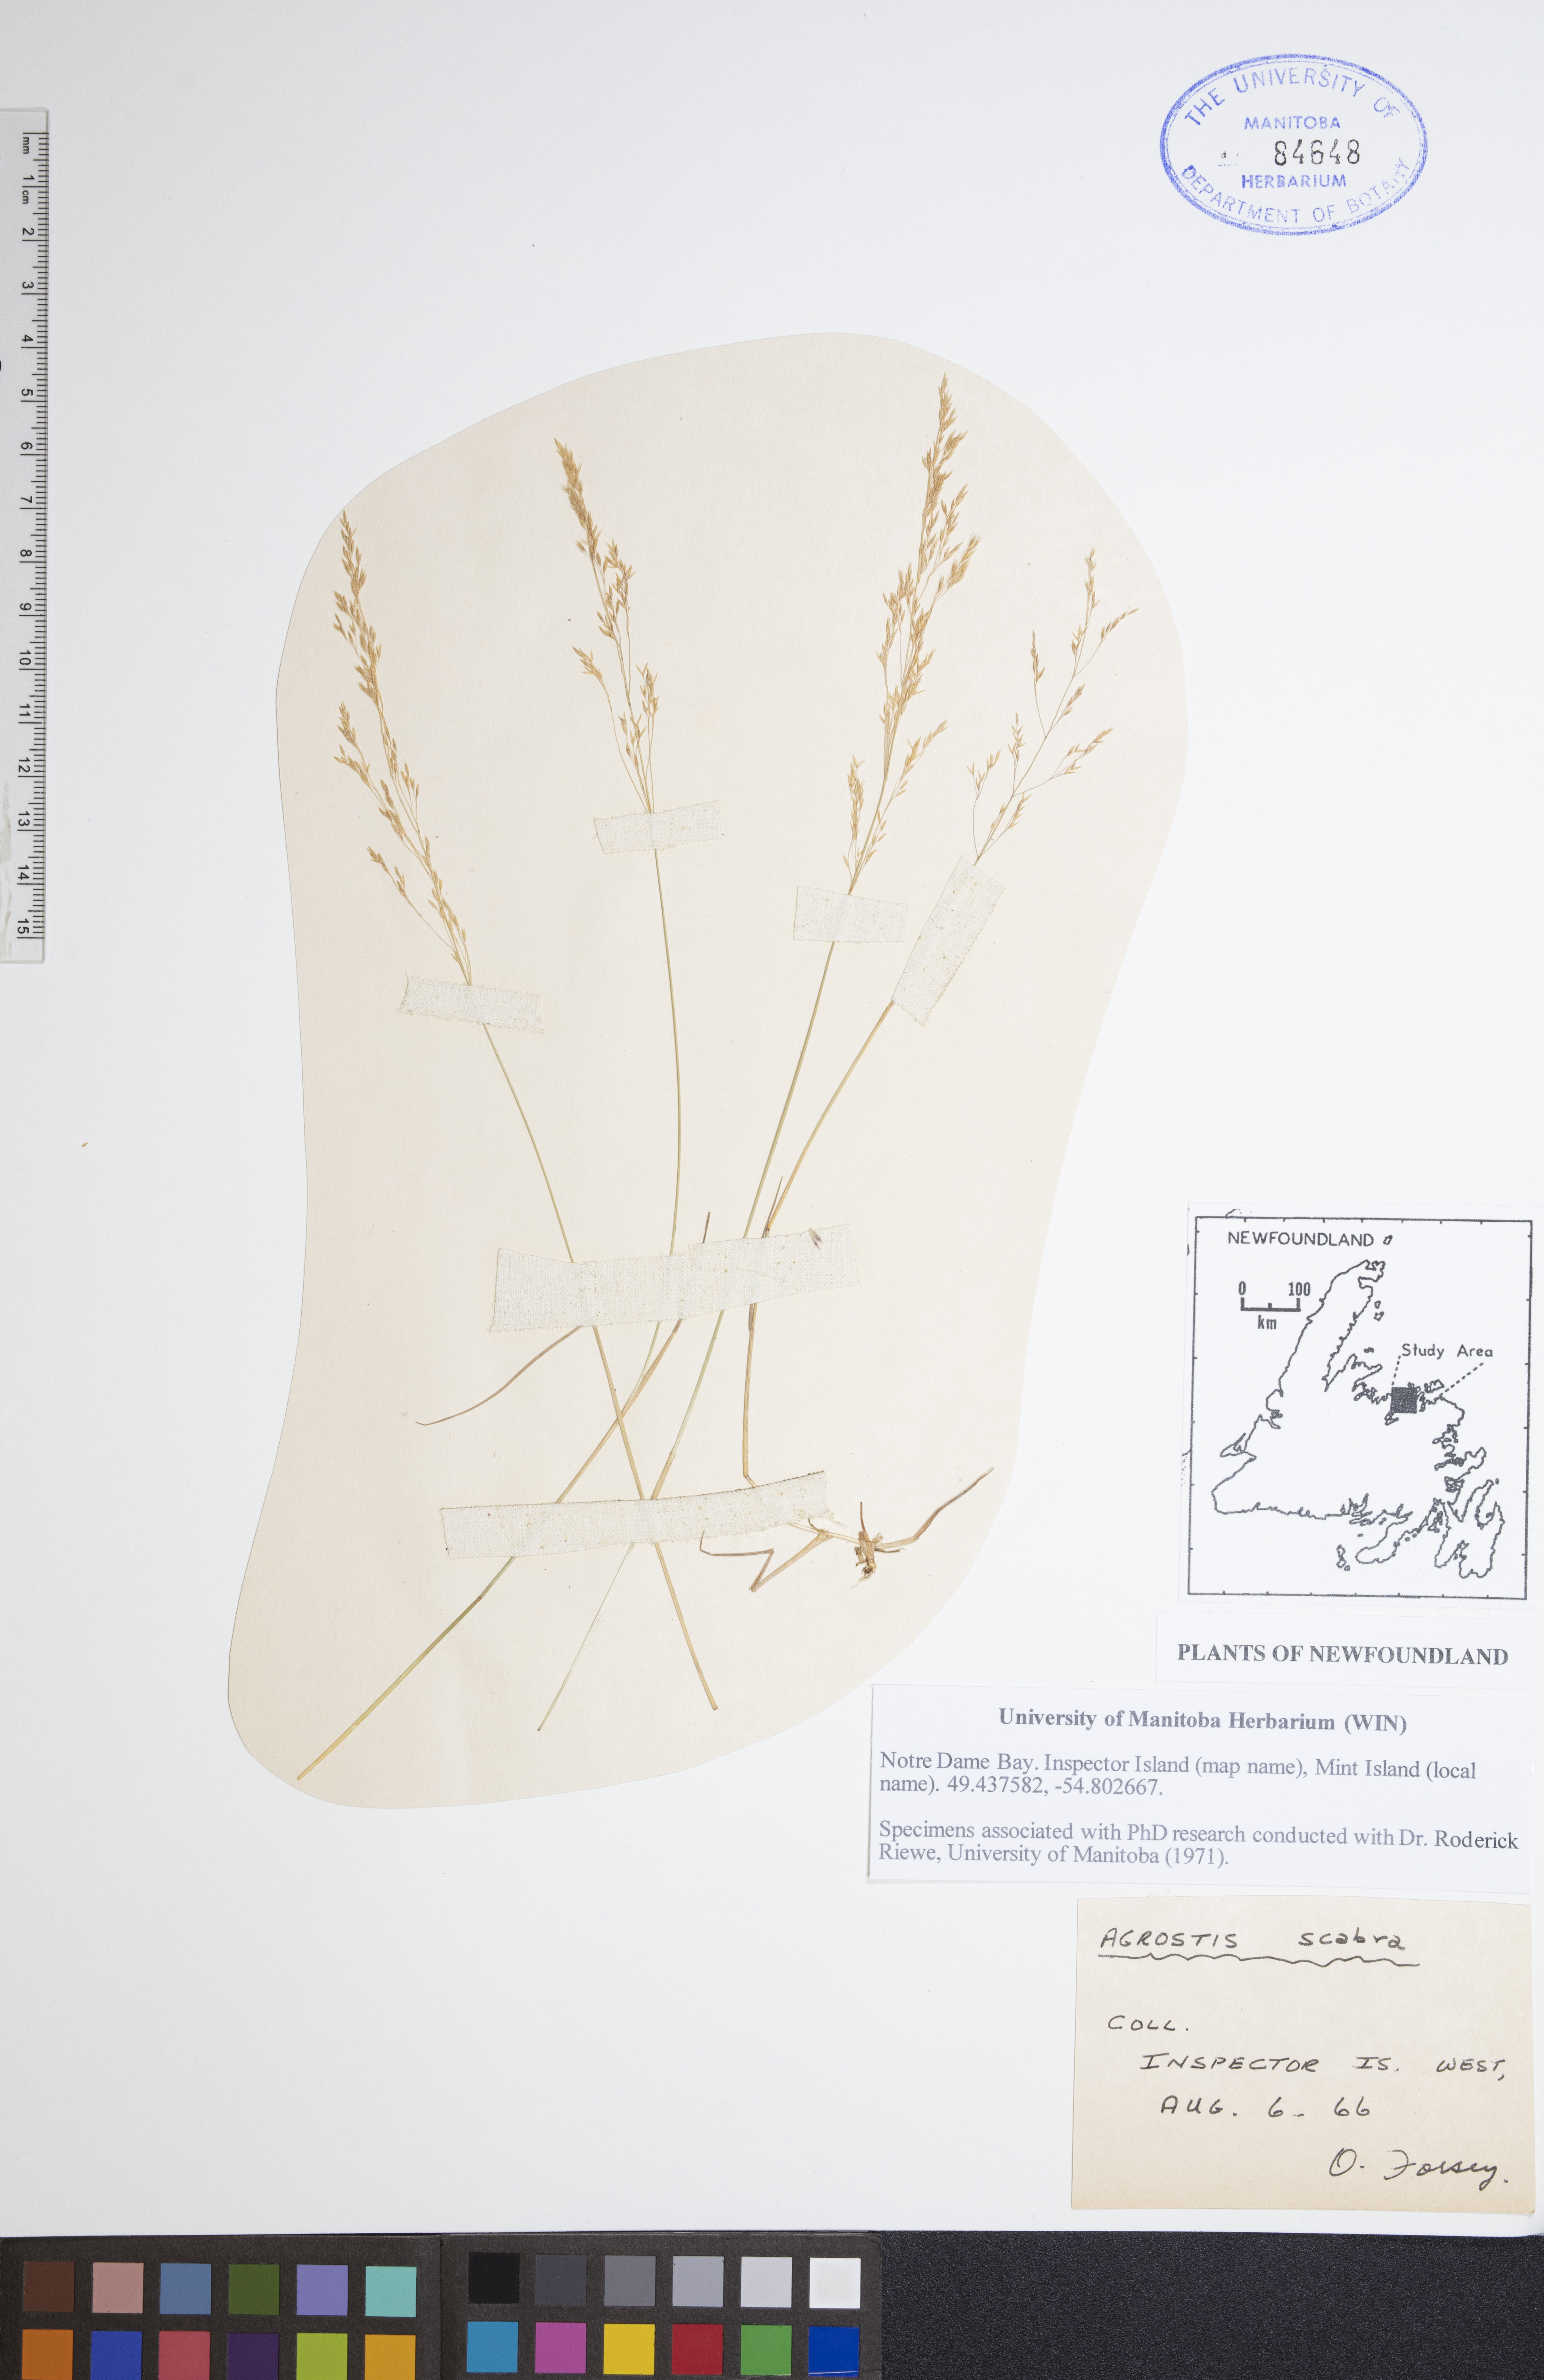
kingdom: Plantae
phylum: Tracheophyta
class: Liliopsida
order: Poales
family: Poaceae
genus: Agrostis
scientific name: Agrostis scabra
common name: Rough bent
